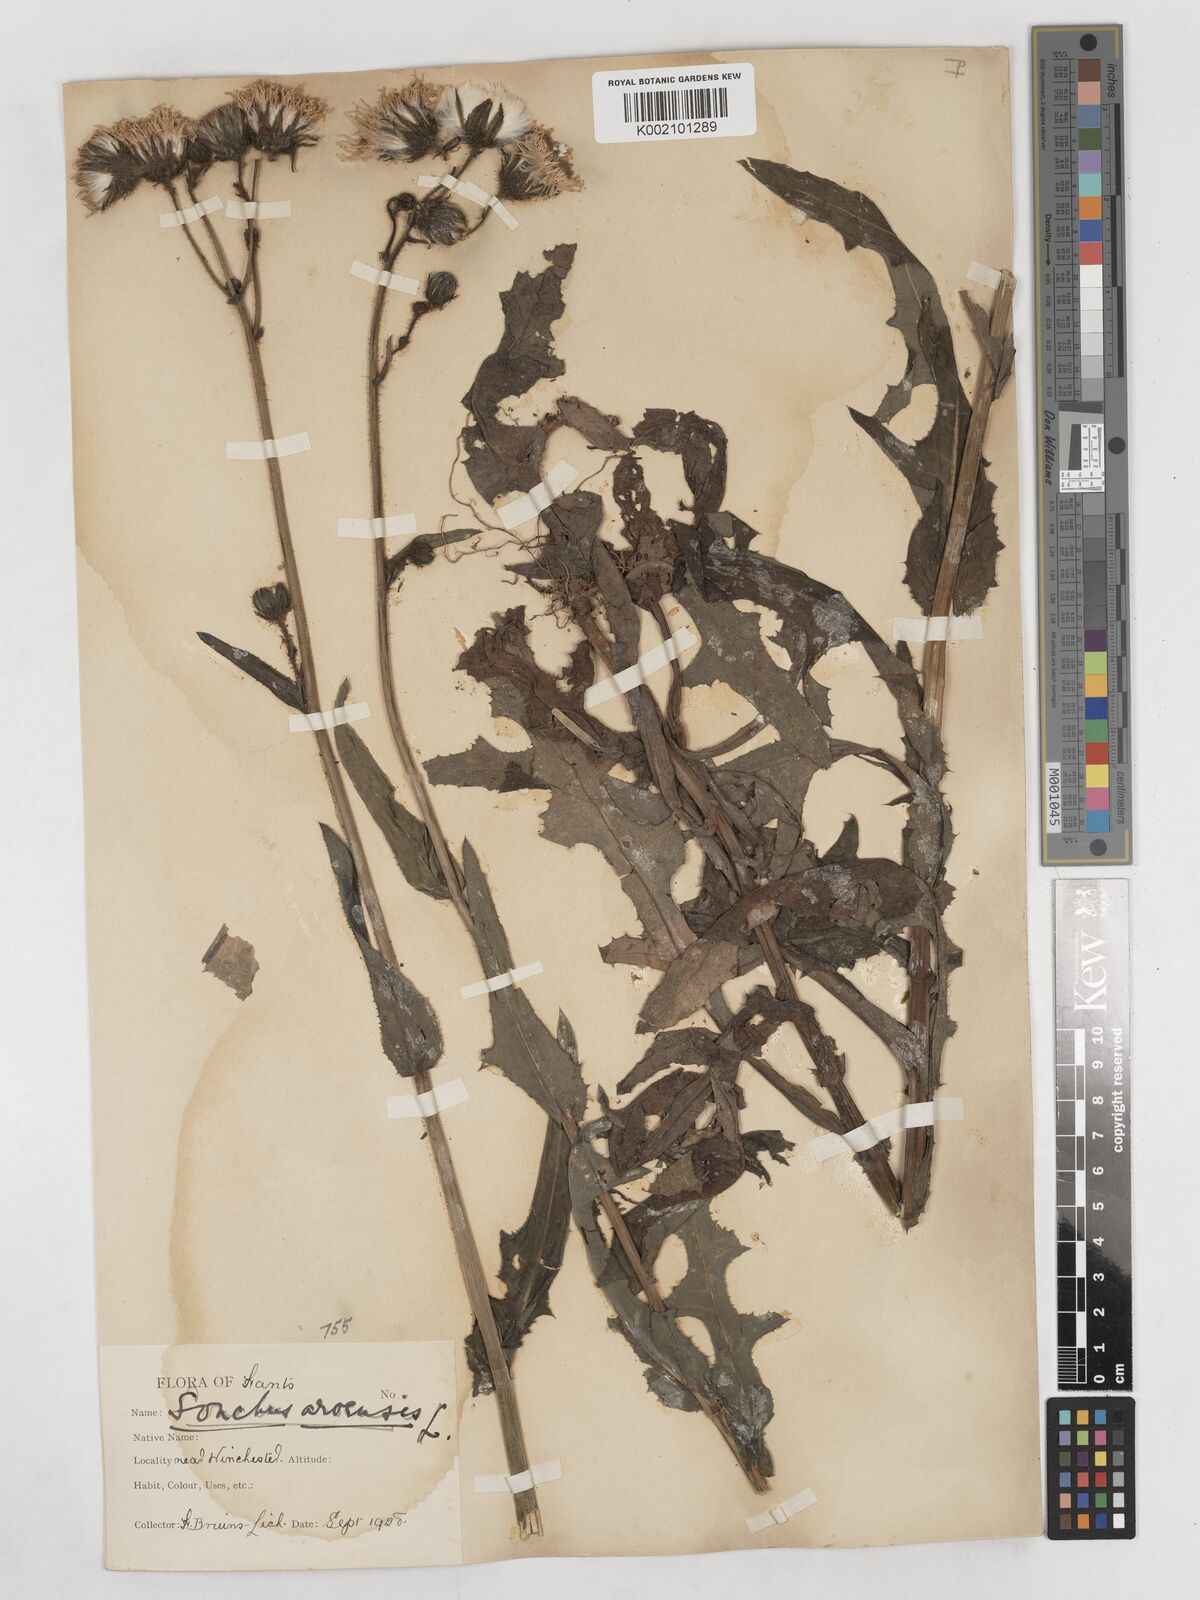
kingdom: Plantae
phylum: Tracheophyta
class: Magnoliopsida
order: Asterales
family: Asteraceae
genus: Sonchus
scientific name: Sonchus arvensis
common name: Perennial sow-thistle
